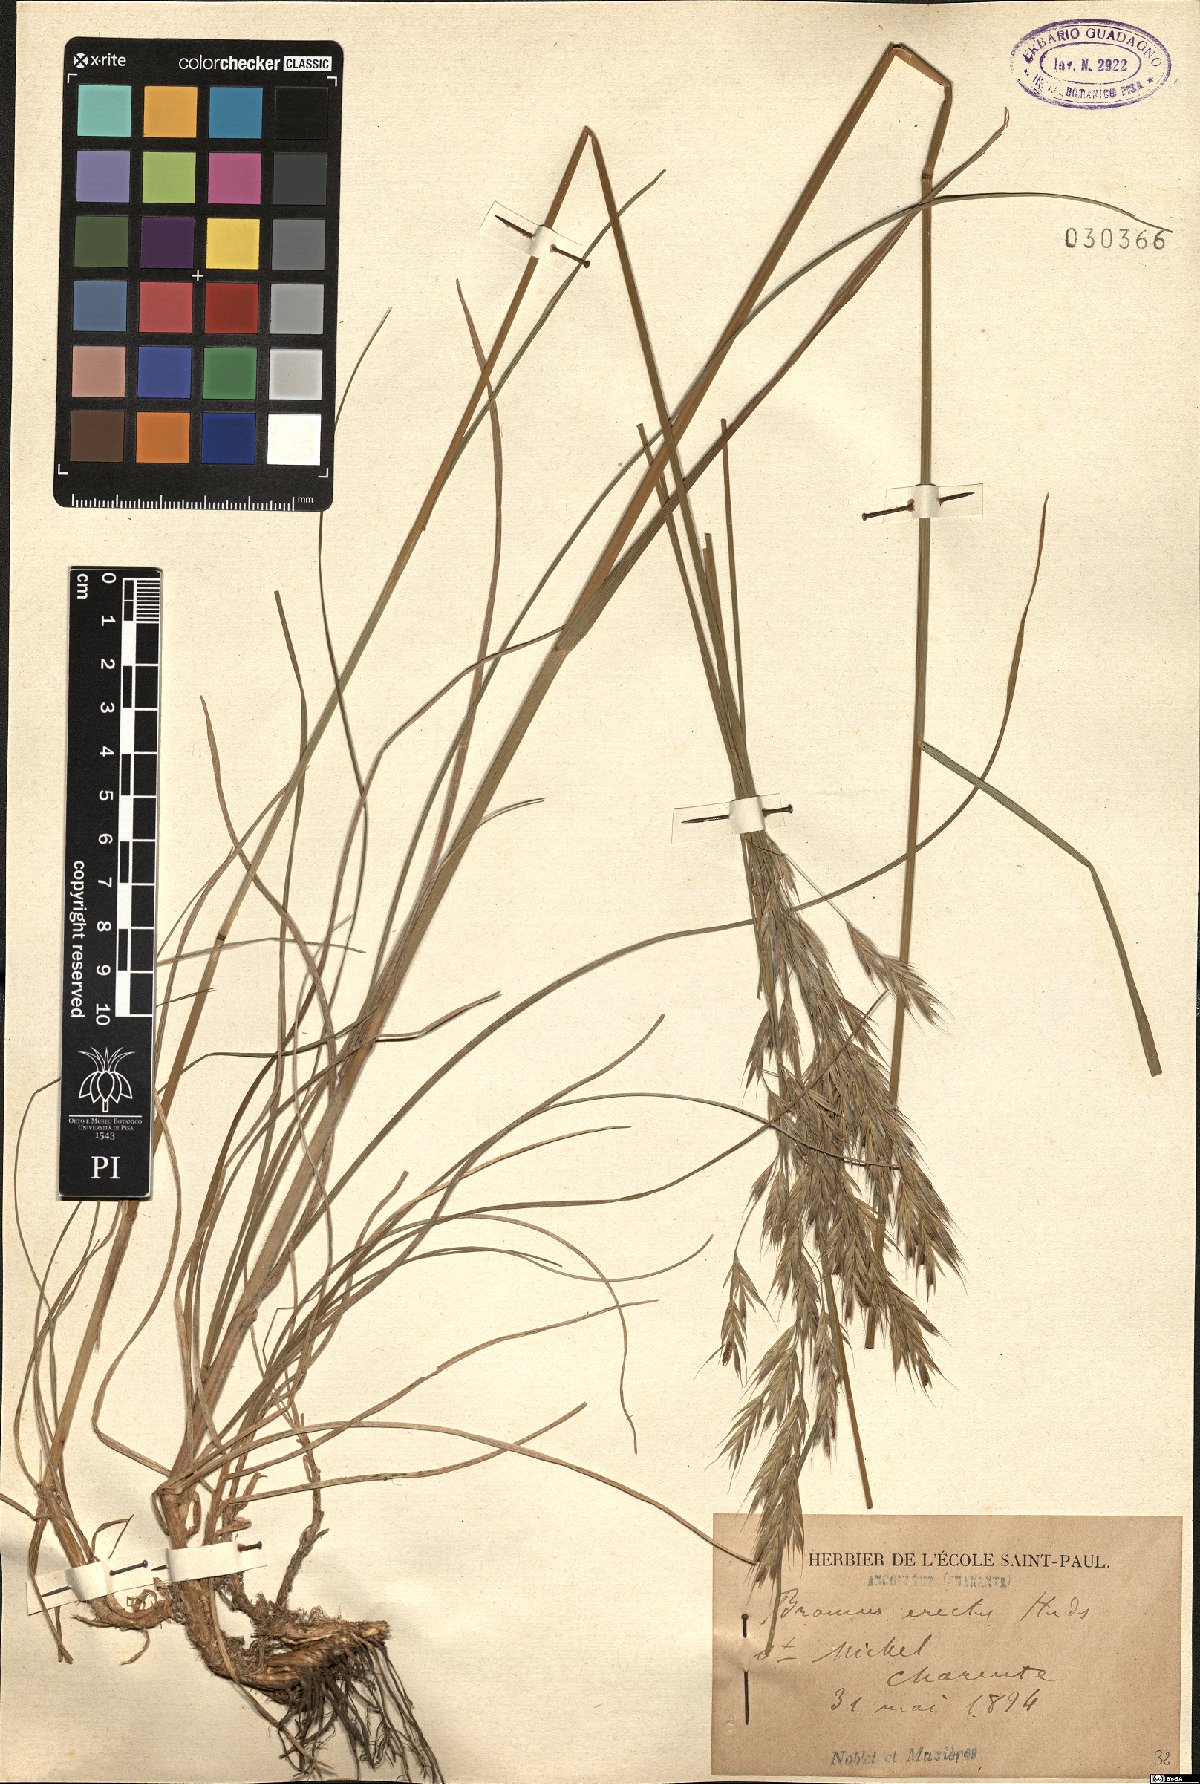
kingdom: Plantae
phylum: Tracheophyta
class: Liliopsida
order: Poales
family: Poaceae
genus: Bromus
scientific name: Bromus erectus
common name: Erect brome
